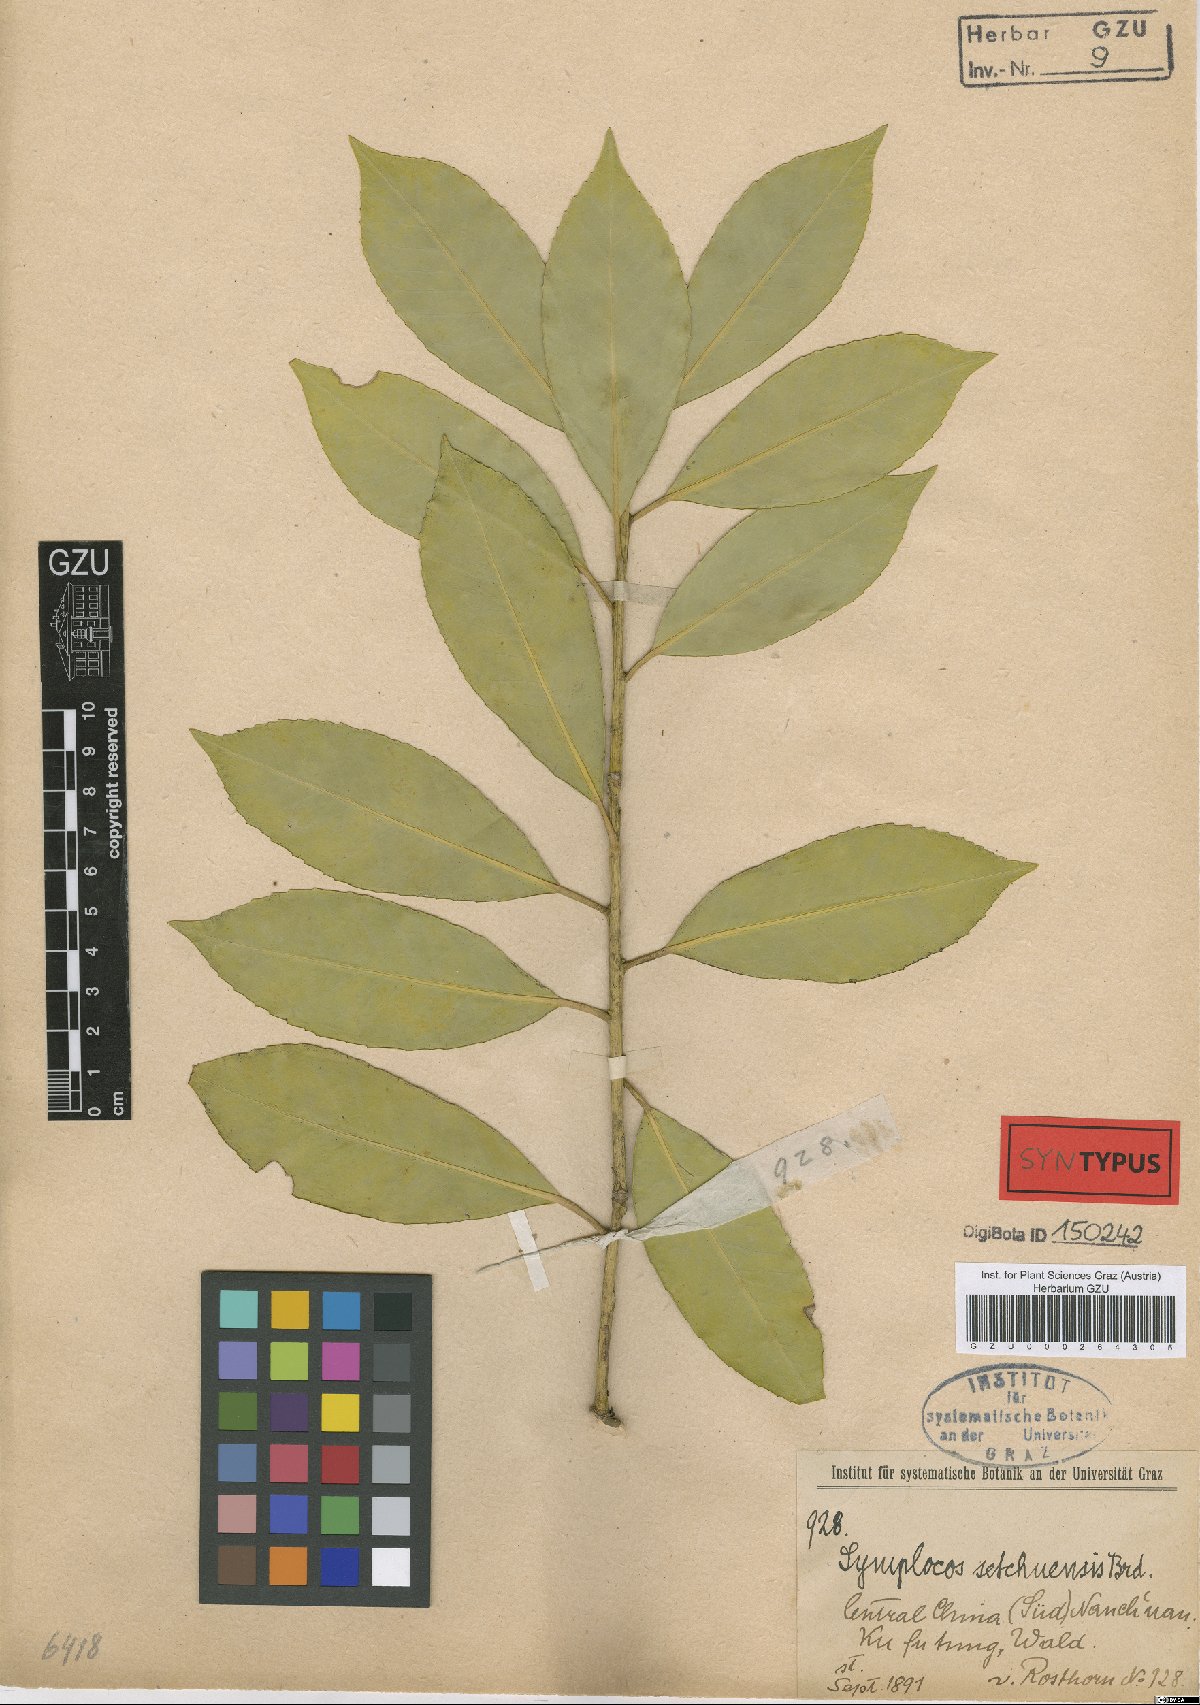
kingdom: Plantae
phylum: Tracheophyta
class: Magnoliopsida
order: Ericales
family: Symplocaceae
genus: Symplocos
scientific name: Symplocos setchuensis
